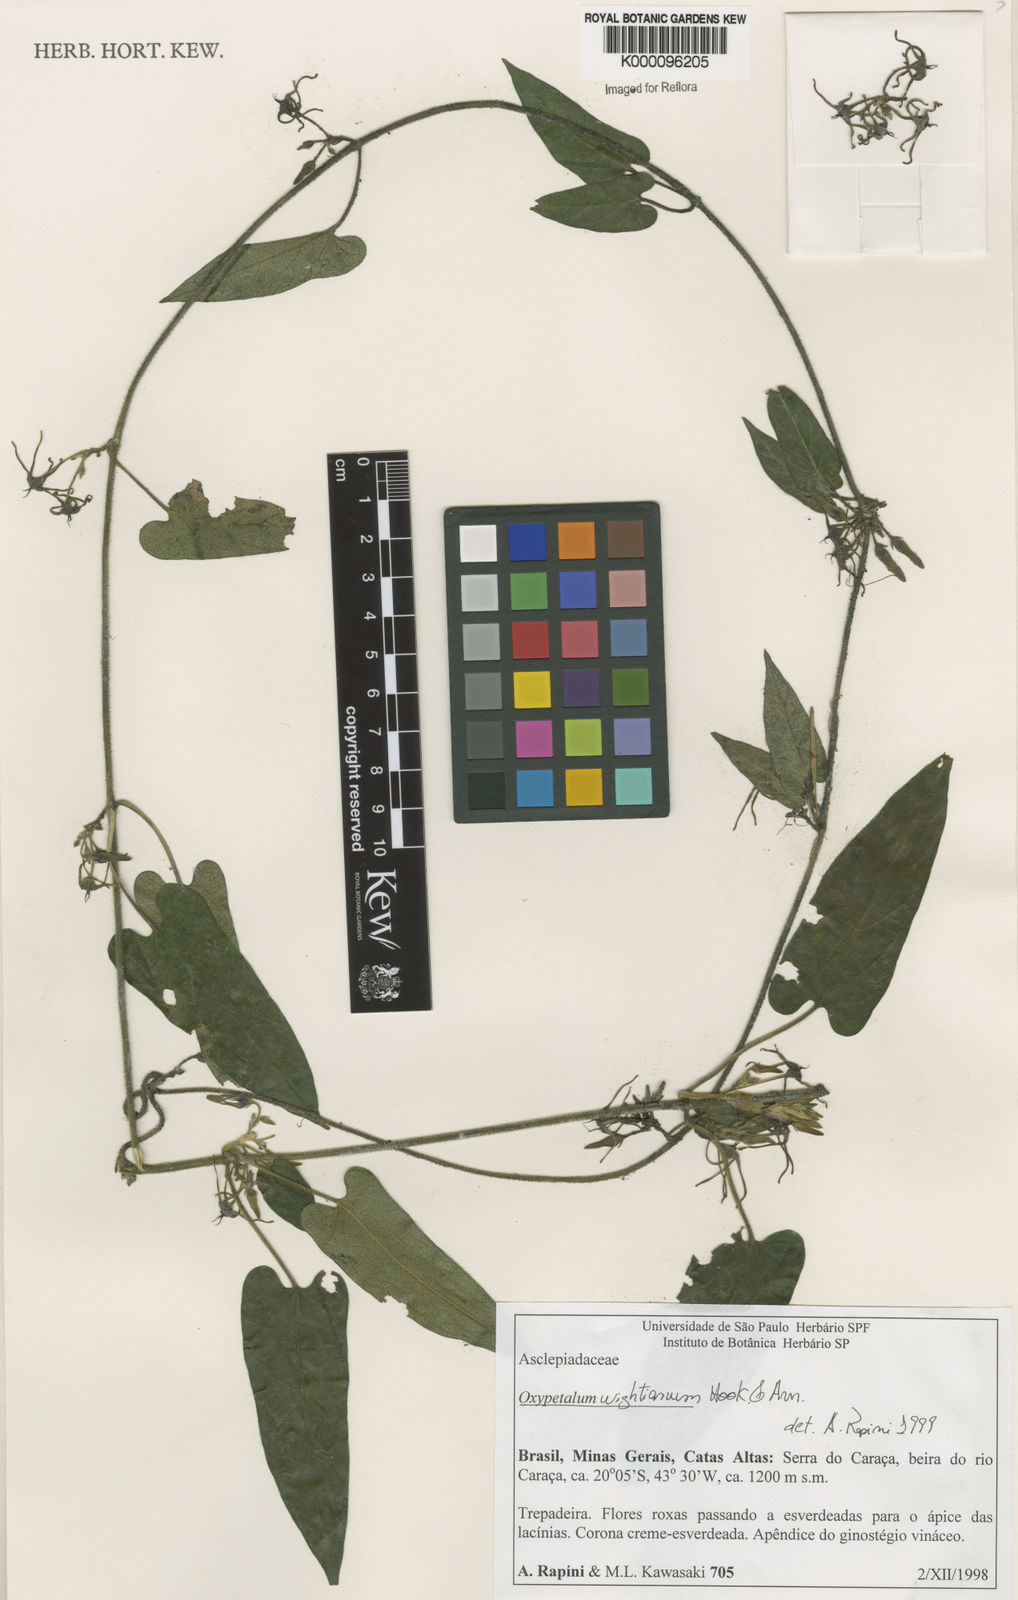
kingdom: Plantae
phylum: Tracheophyta
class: Magnoliopsida
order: Gentianales
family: Apocynaceae
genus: Oxypetalum
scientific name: Oxypetalum wightianum
